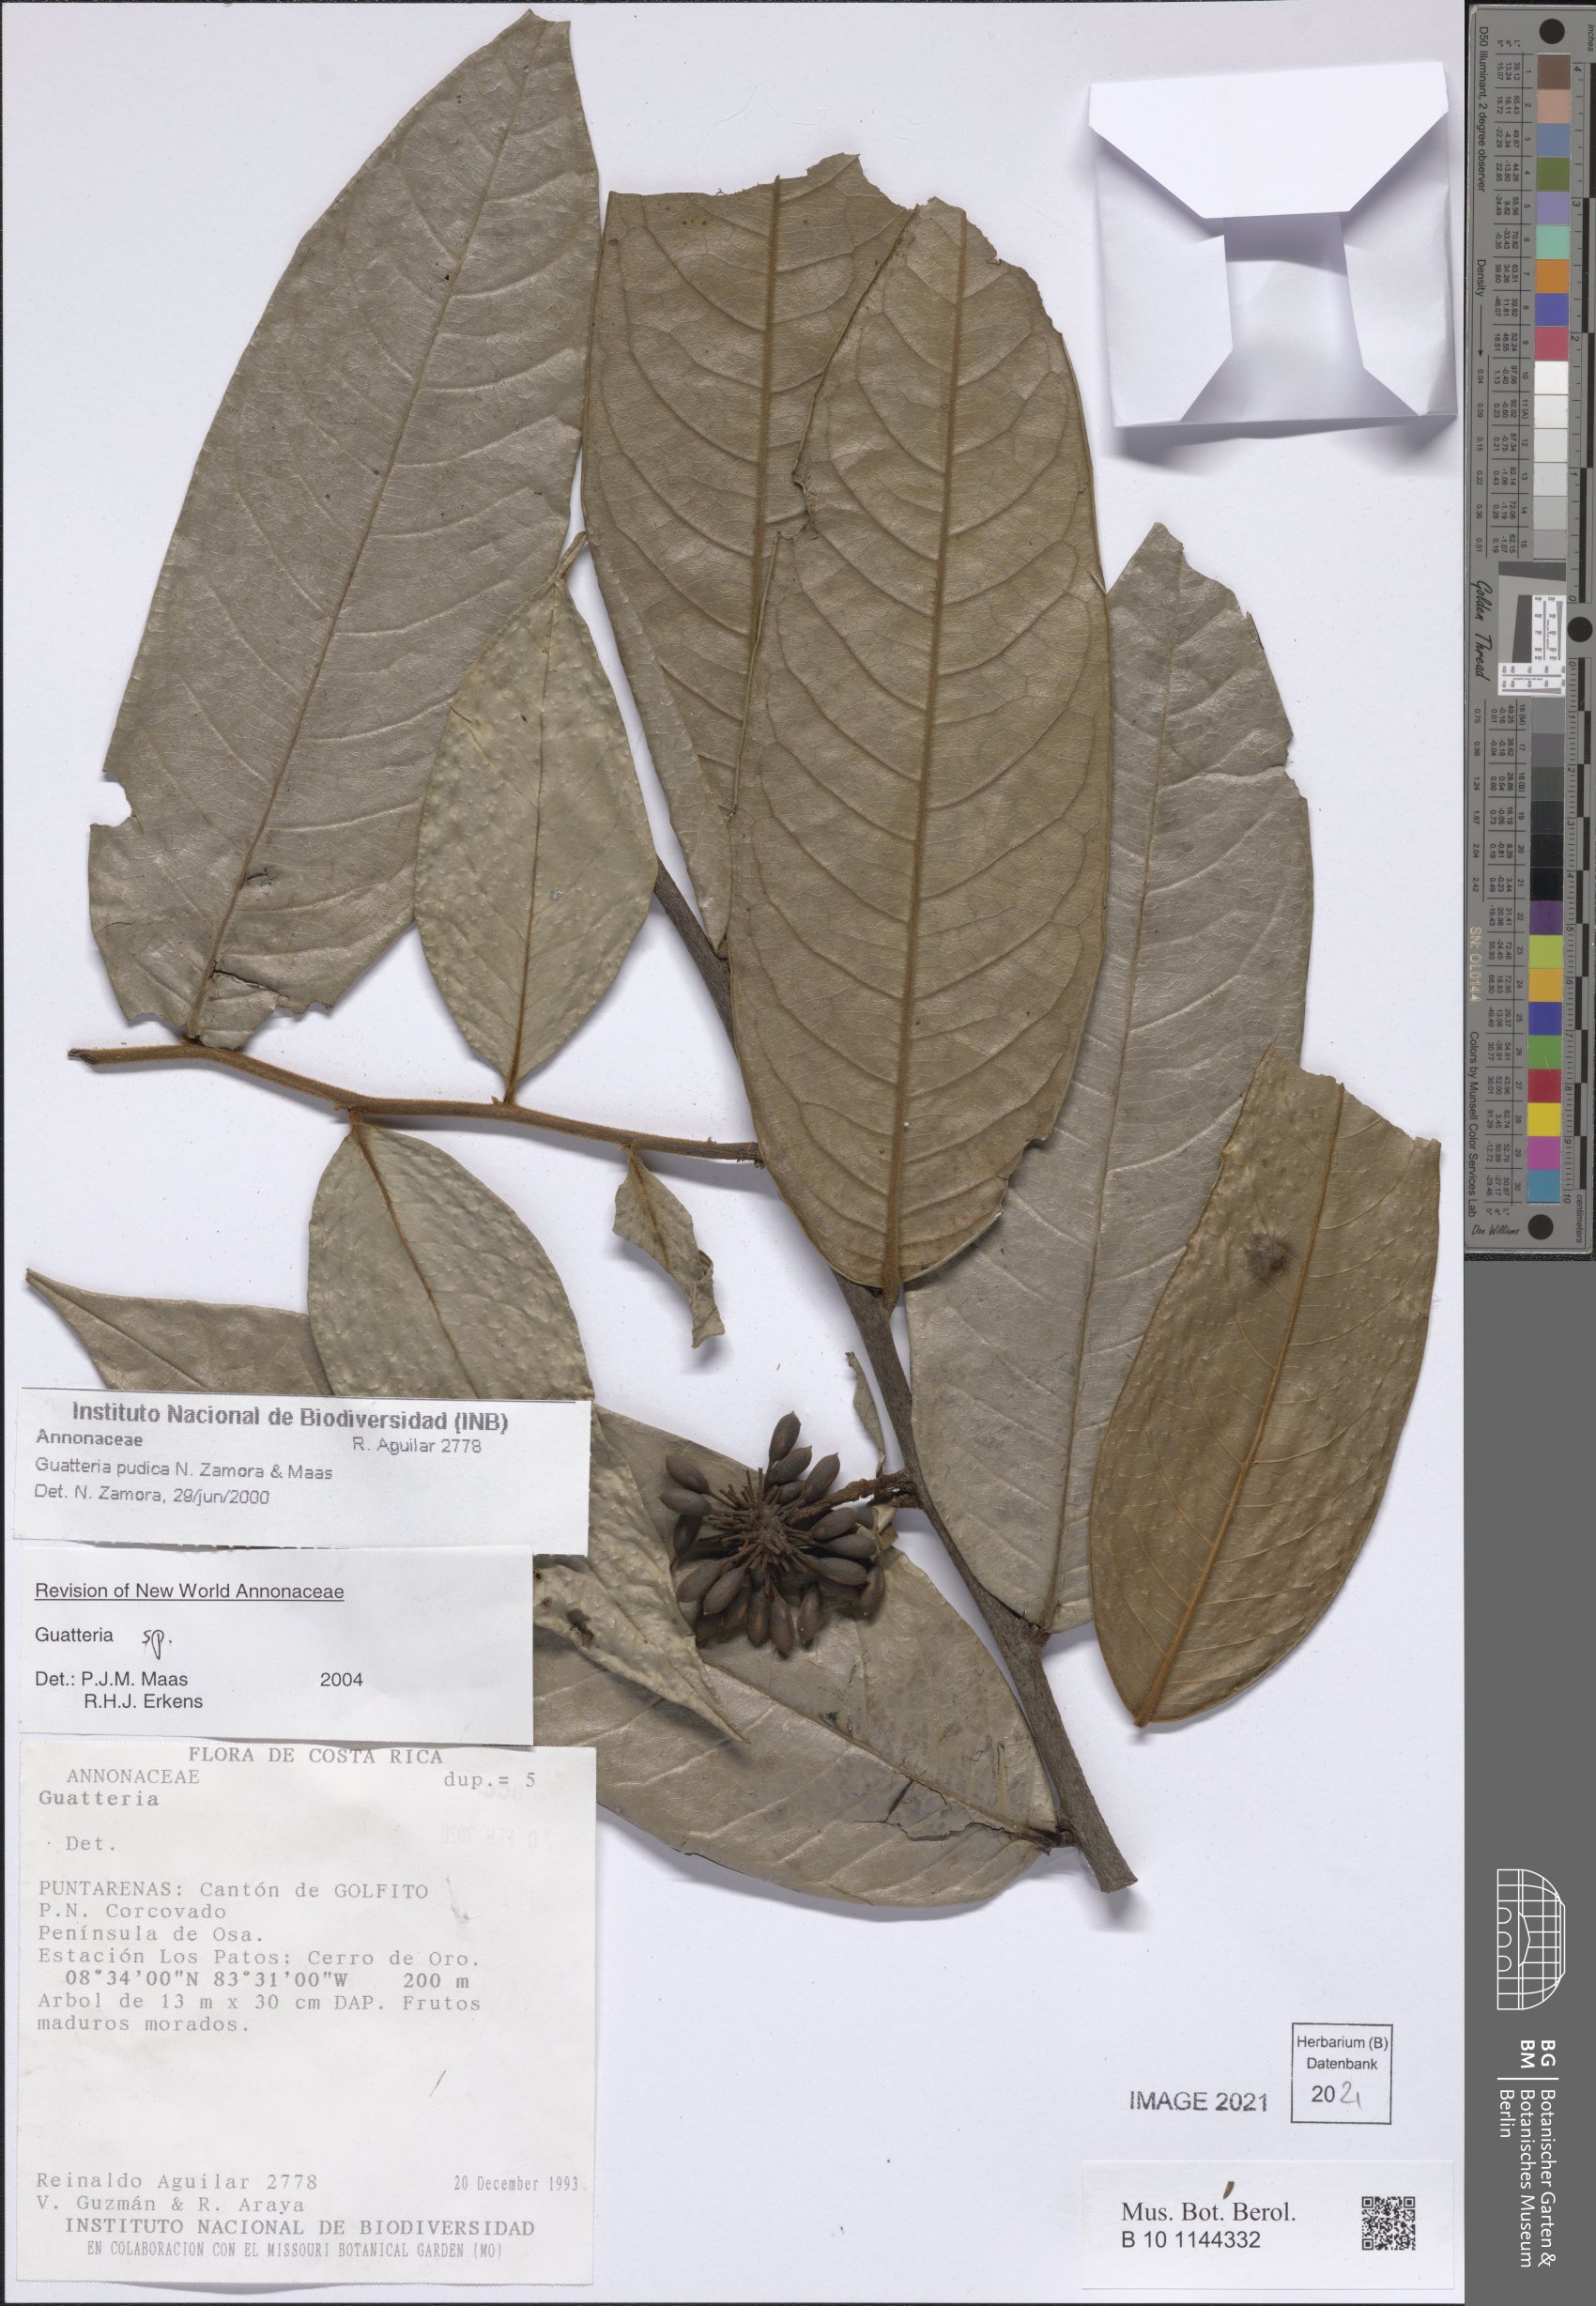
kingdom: Plantae
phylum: Tracheophyta
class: Magnoliopsida
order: Magnoliales
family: Annonaceae
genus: Guatteria
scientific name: Guatteria pudica
